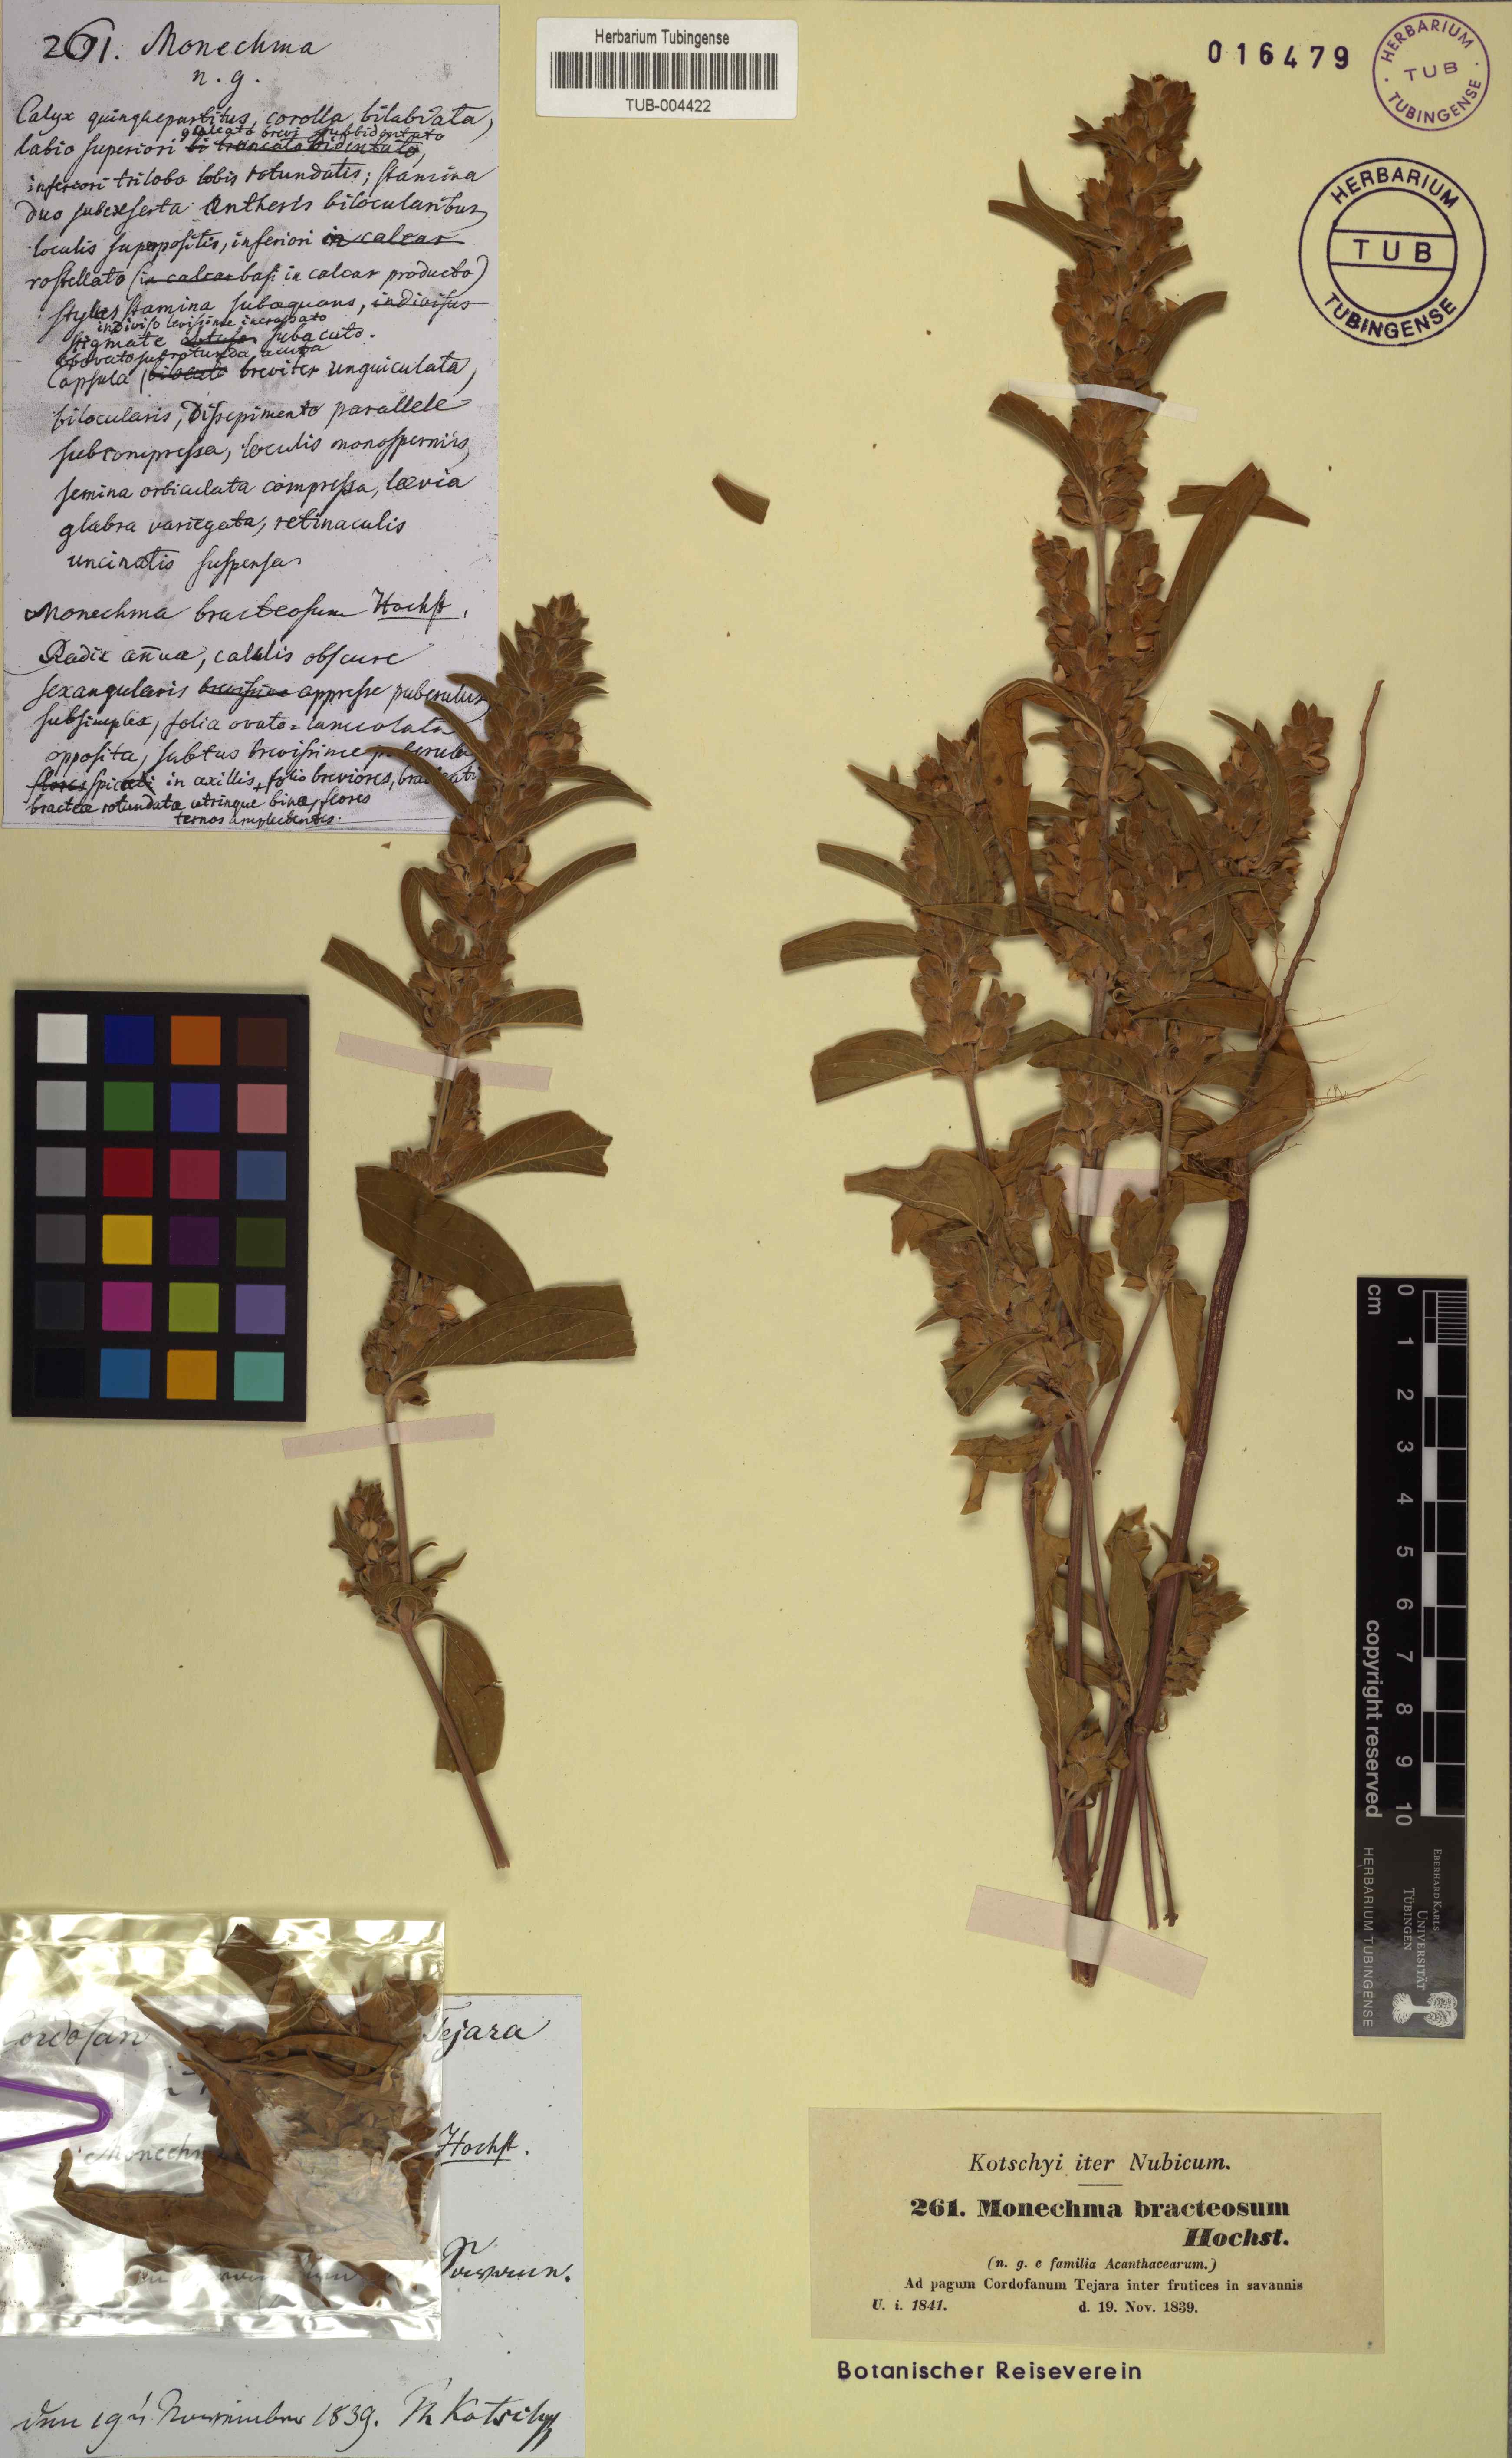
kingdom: Plantae
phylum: Tracheophyta
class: Magnoliopsida
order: Lamiales
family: Acanthaceae
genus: Monechma
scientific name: Monechma debile
